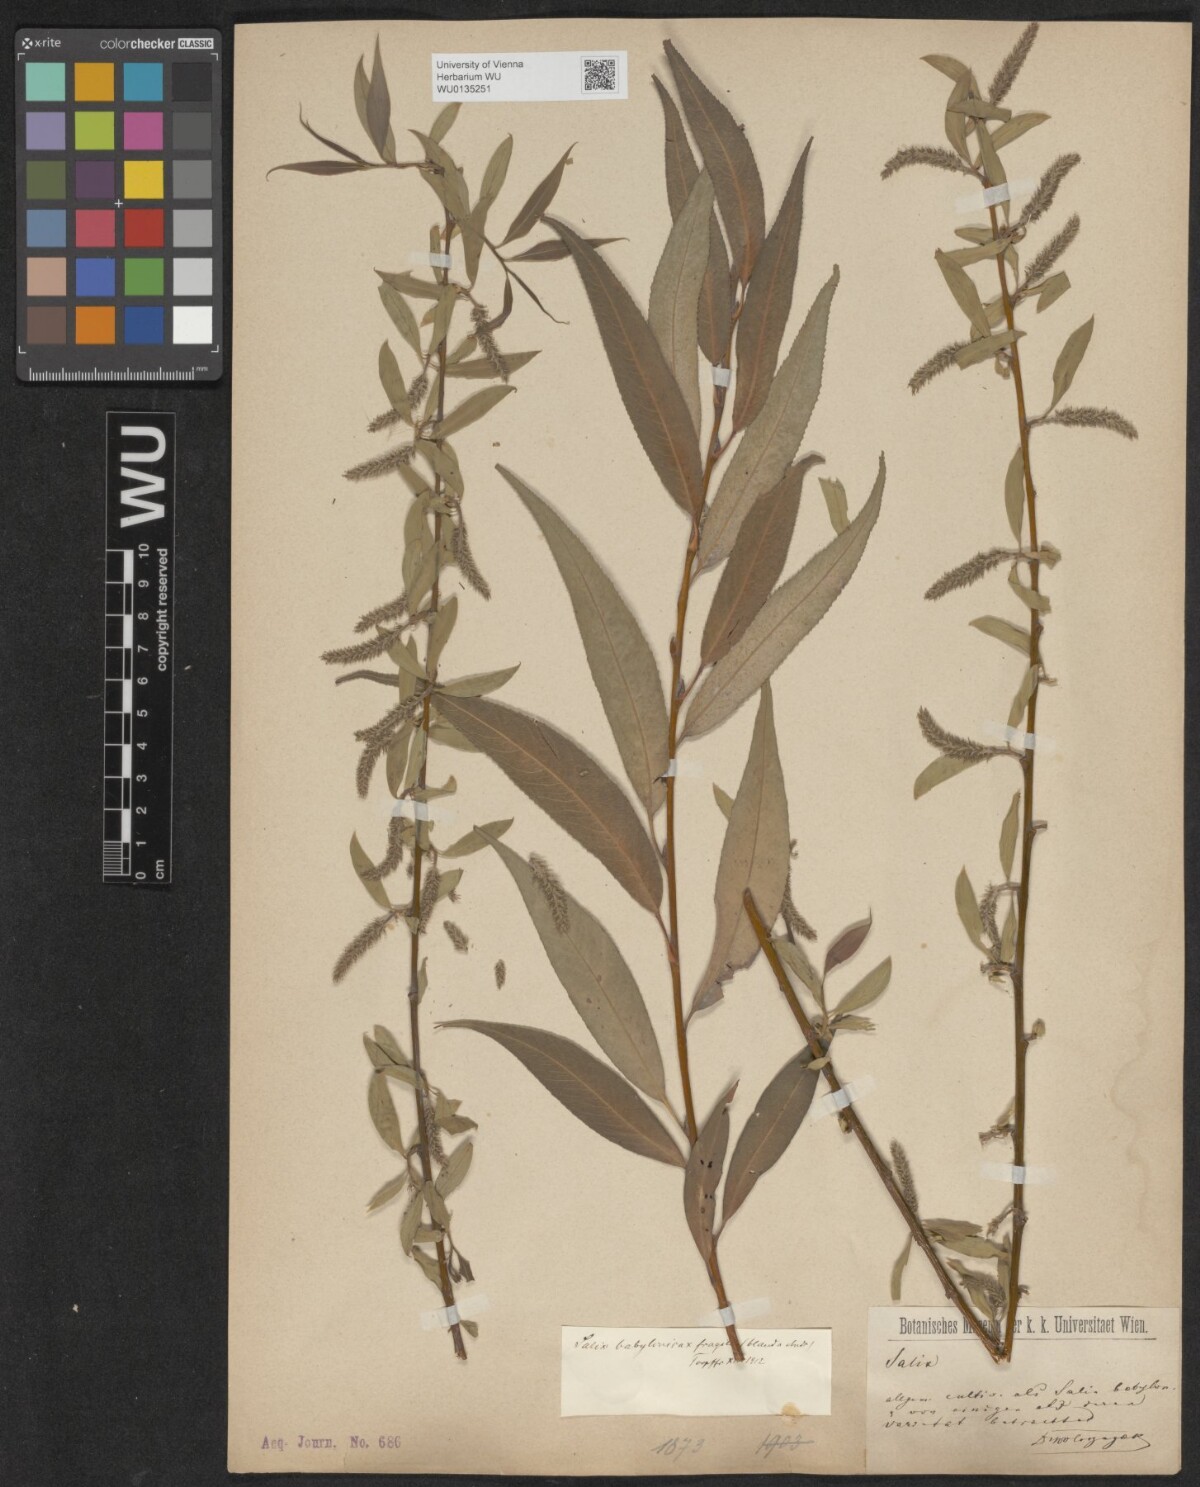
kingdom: Plantae
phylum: Tracheophyta
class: Magnoliopsida
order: Malpighiales
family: Salicaceae
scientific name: Salicaceae
